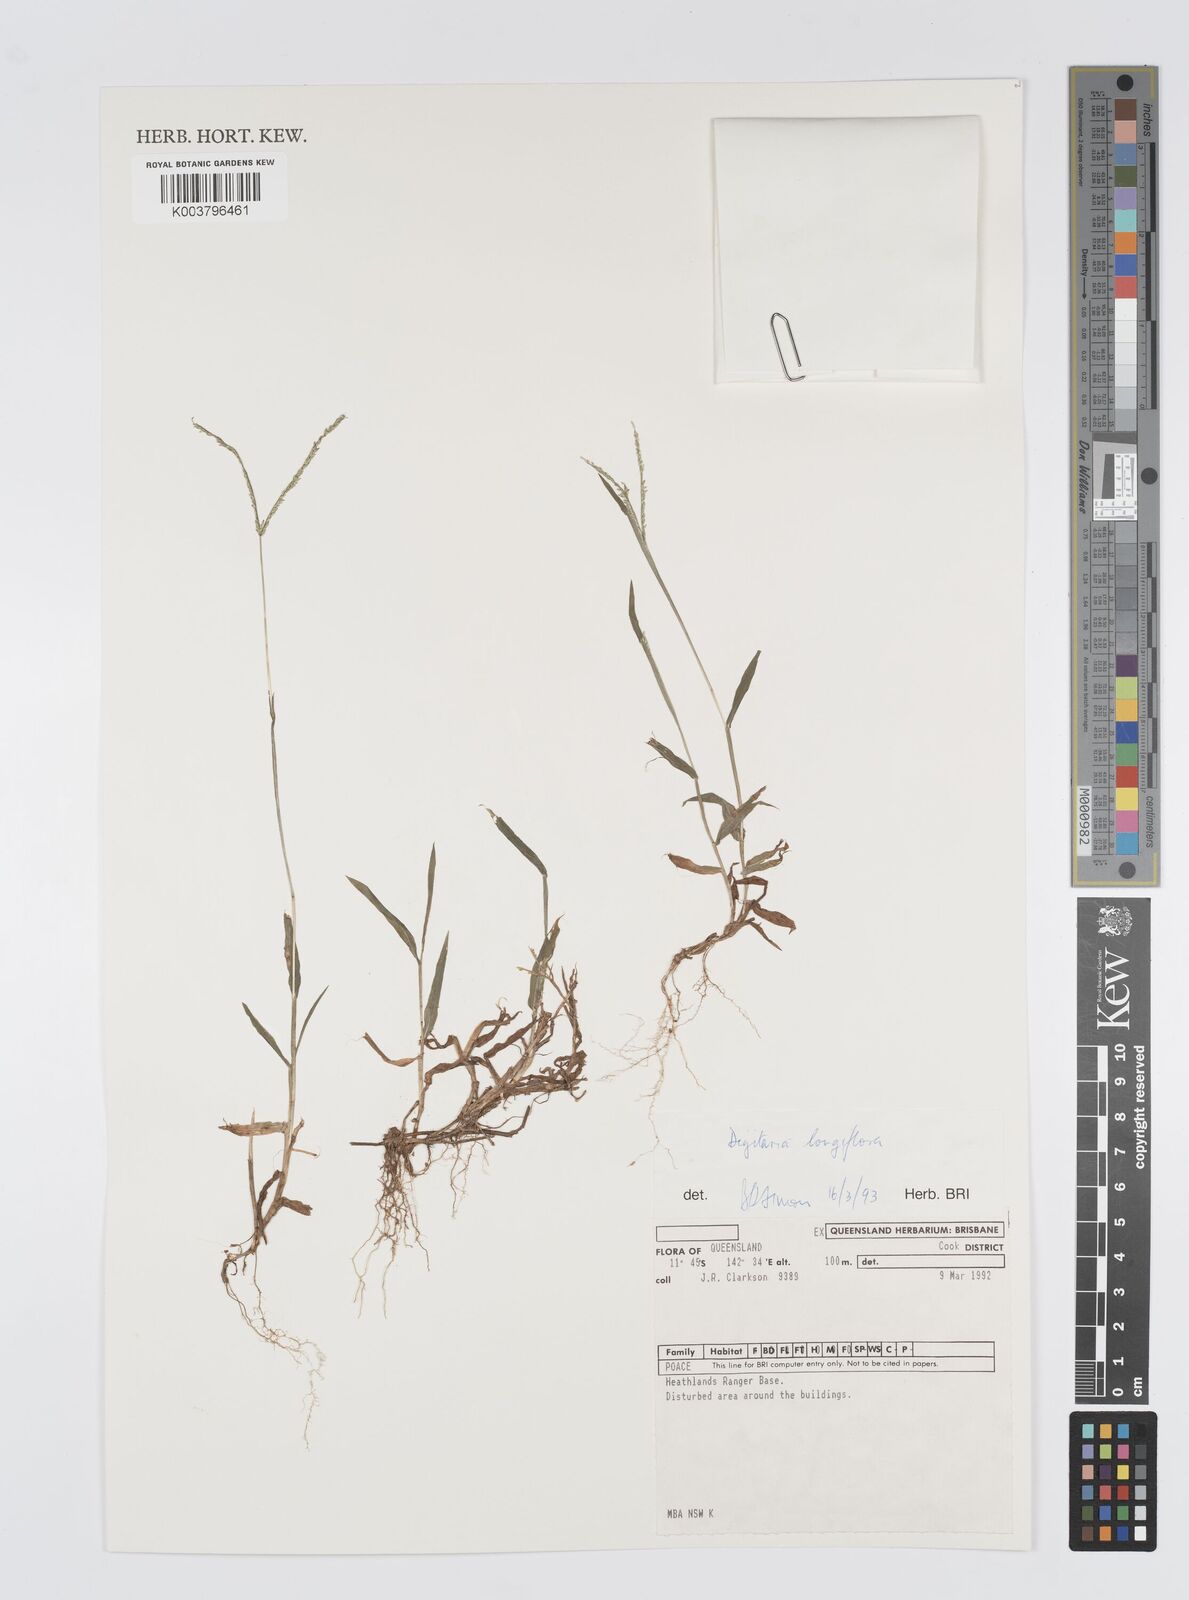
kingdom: Plantae
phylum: Tracheophyta
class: Liliopsida
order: Poales
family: Poaceae
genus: Digitaria
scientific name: Digitaria longiflora
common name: Wire crabgrass
